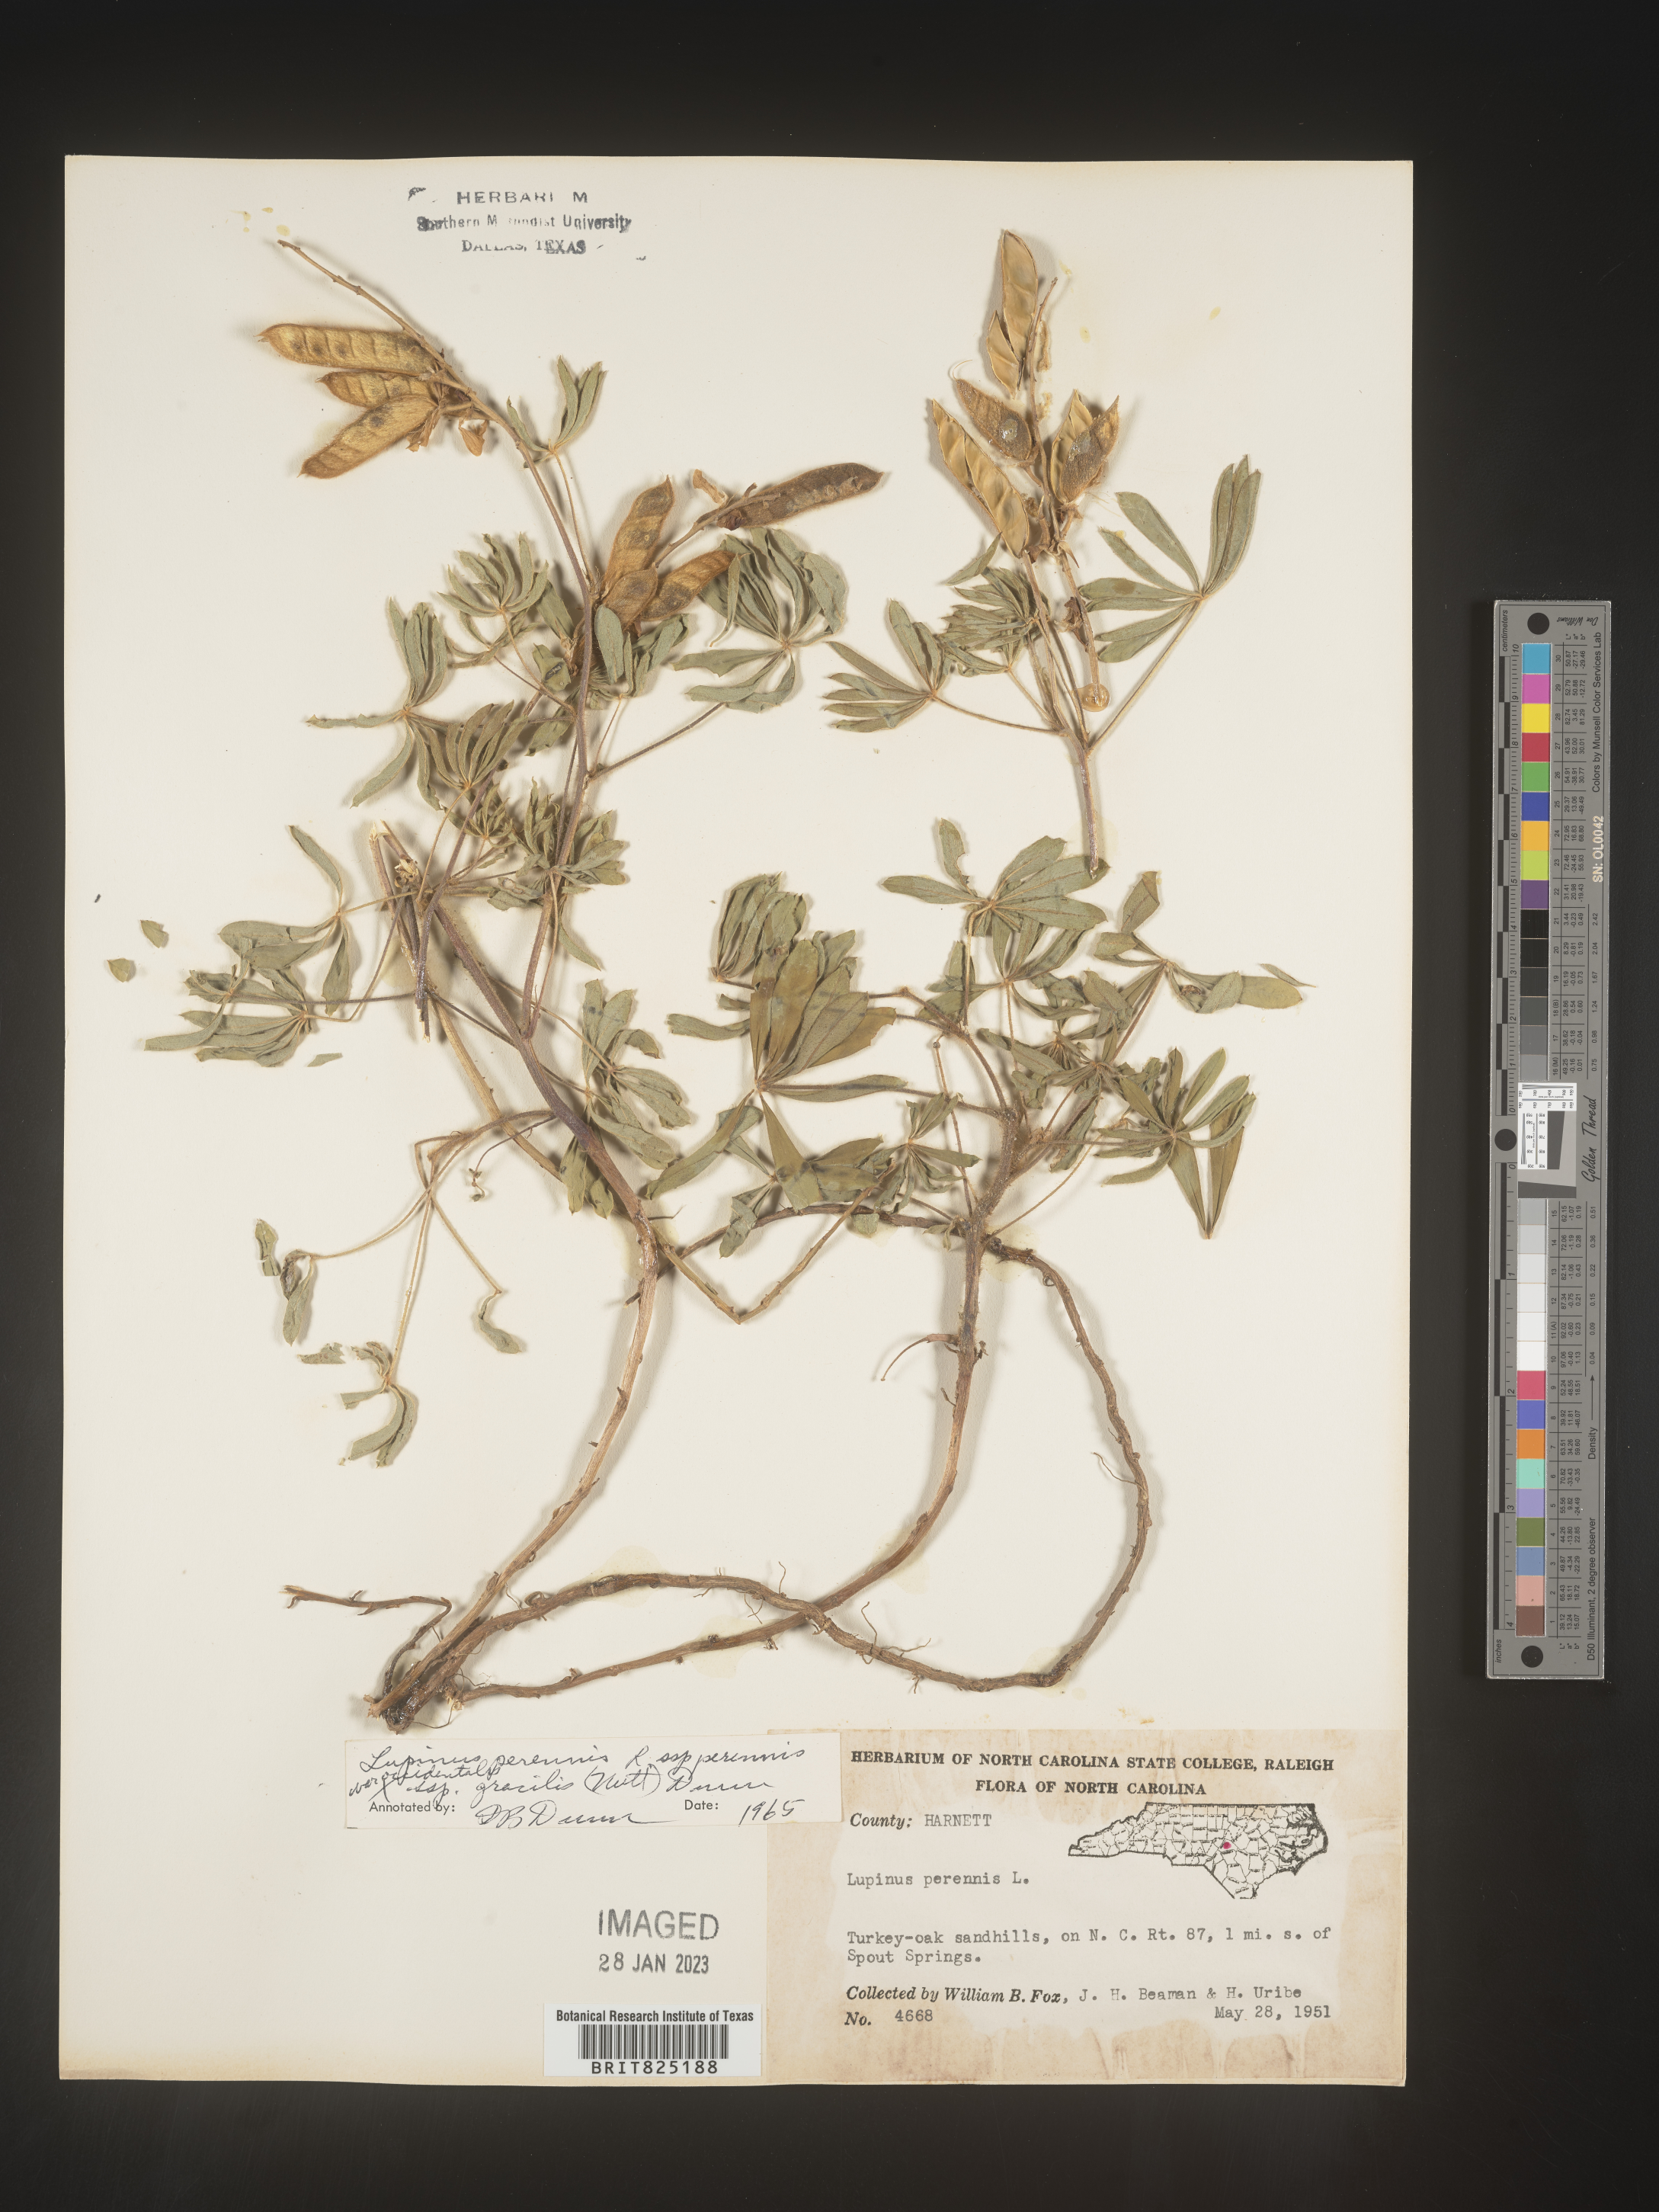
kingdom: Plantae
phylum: Tracheophyta
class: Magnoliopsida
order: Fabales
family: Fabaceae
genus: Lupinus
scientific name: Lupinus perennis
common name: Sundial lupine
